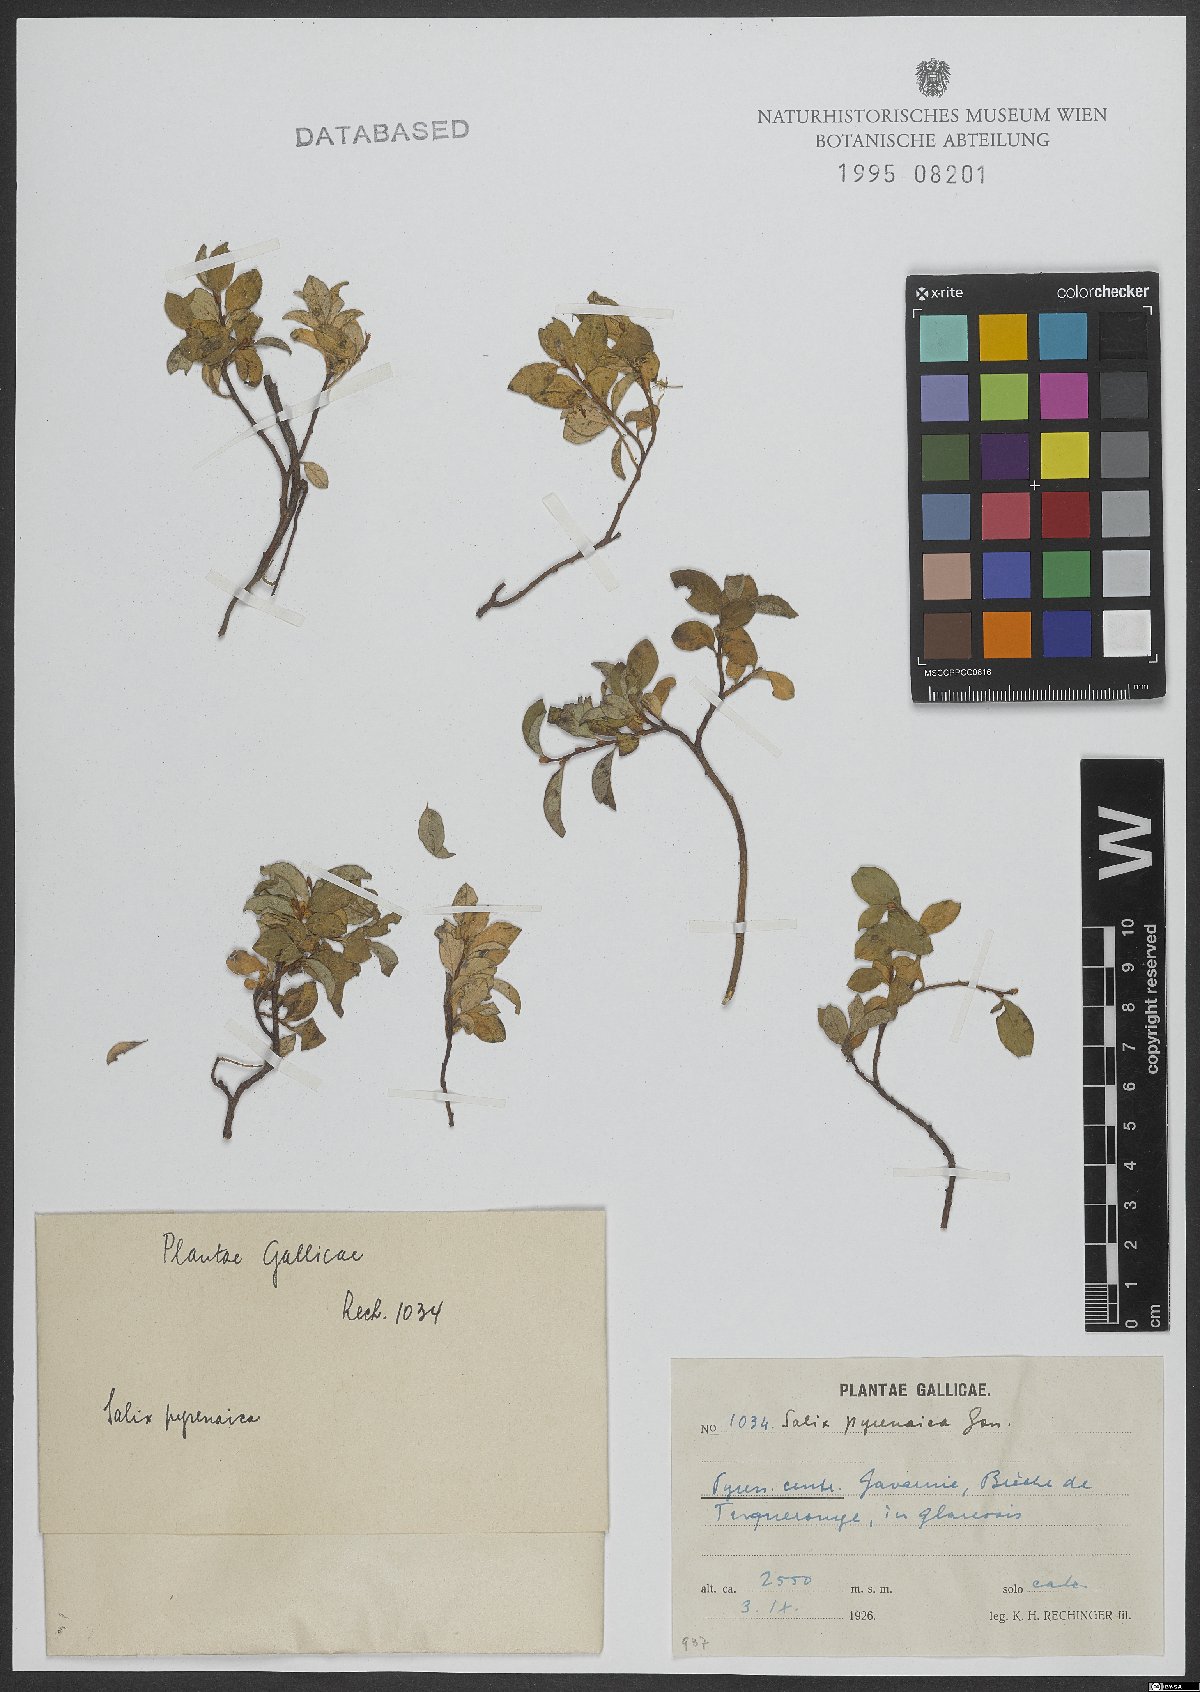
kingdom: Plantae
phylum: Tracheophyta
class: Magnoliopsida
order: Malpighiales
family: Salicaceae
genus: Salix
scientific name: Salix pyrenaica
